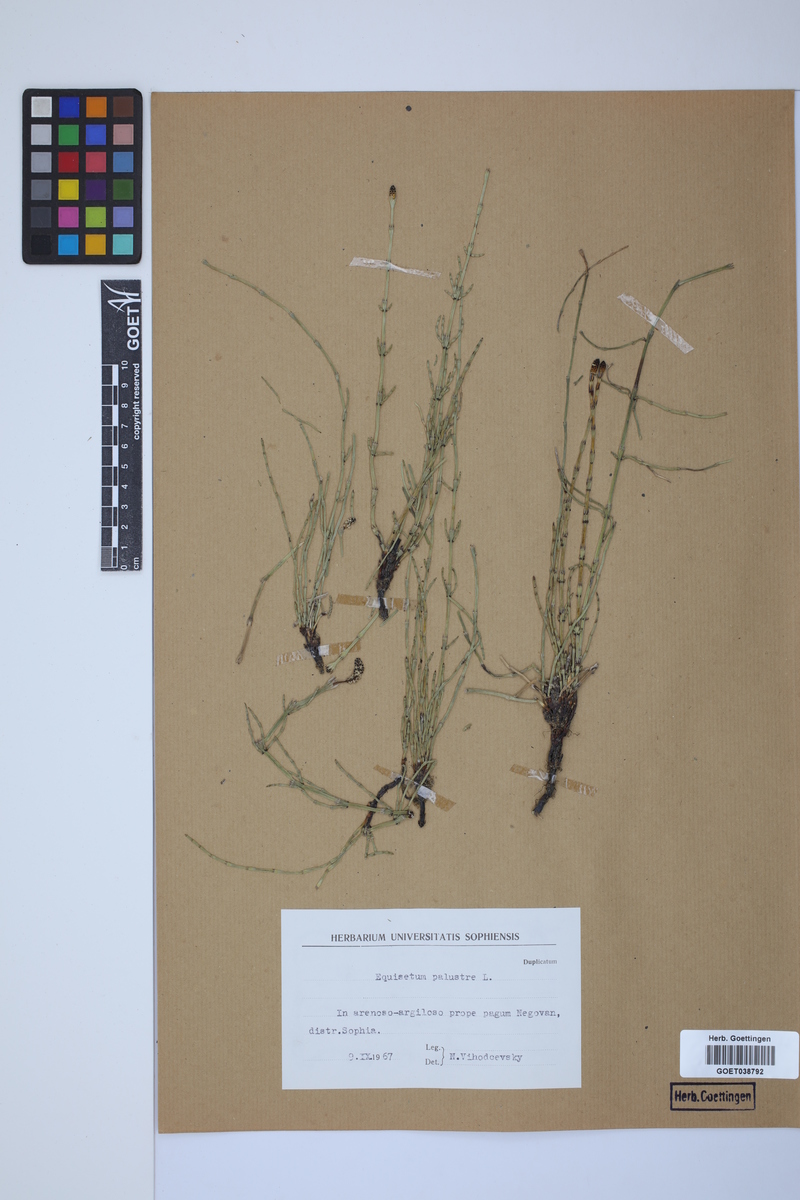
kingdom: Plantae
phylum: Tracheophyta
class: Polypodiopsida
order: Equisetales
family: Equisetaceae
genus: Equisetum
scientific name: Equisetum palustre
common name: Marsh horsetail
